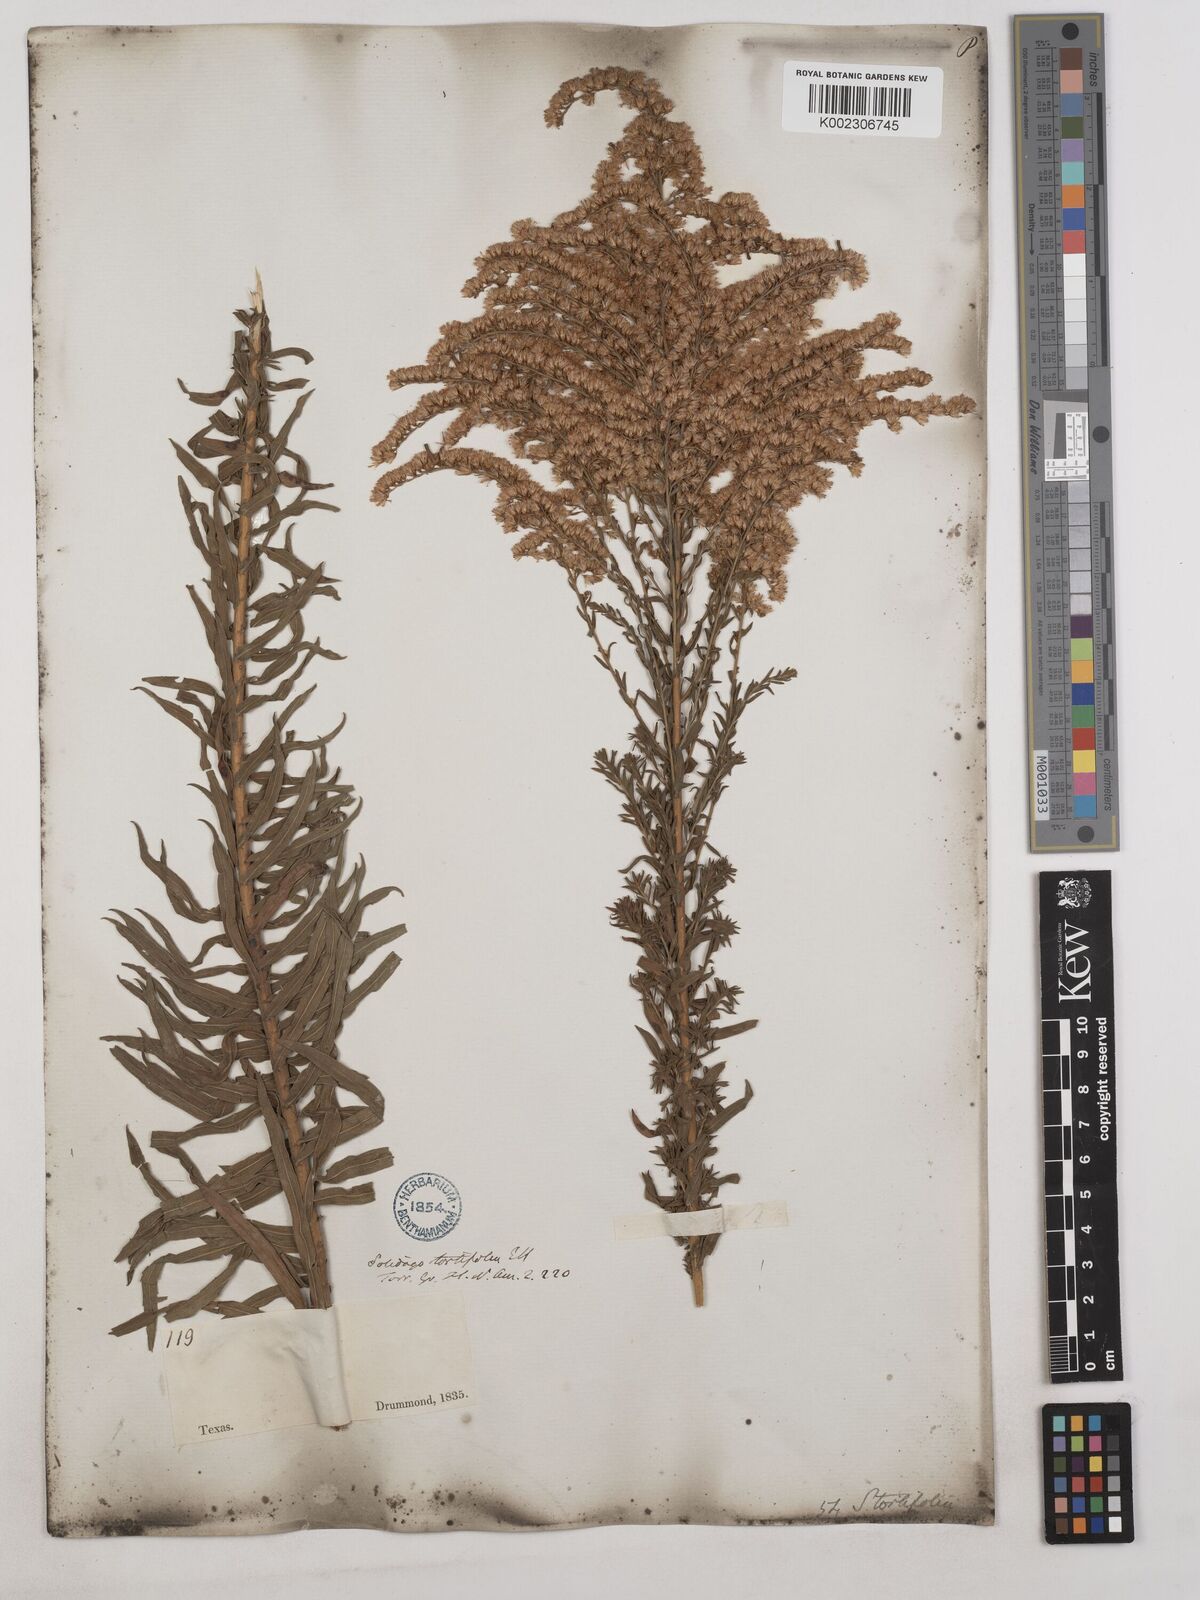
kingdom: Plantae
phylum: Tracheophyta
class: Magnoliopsida
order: Asterales
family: Asteraceae
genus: Solidago
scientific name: Solidago tortifolia
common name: Twisted-leaf goldenrod
